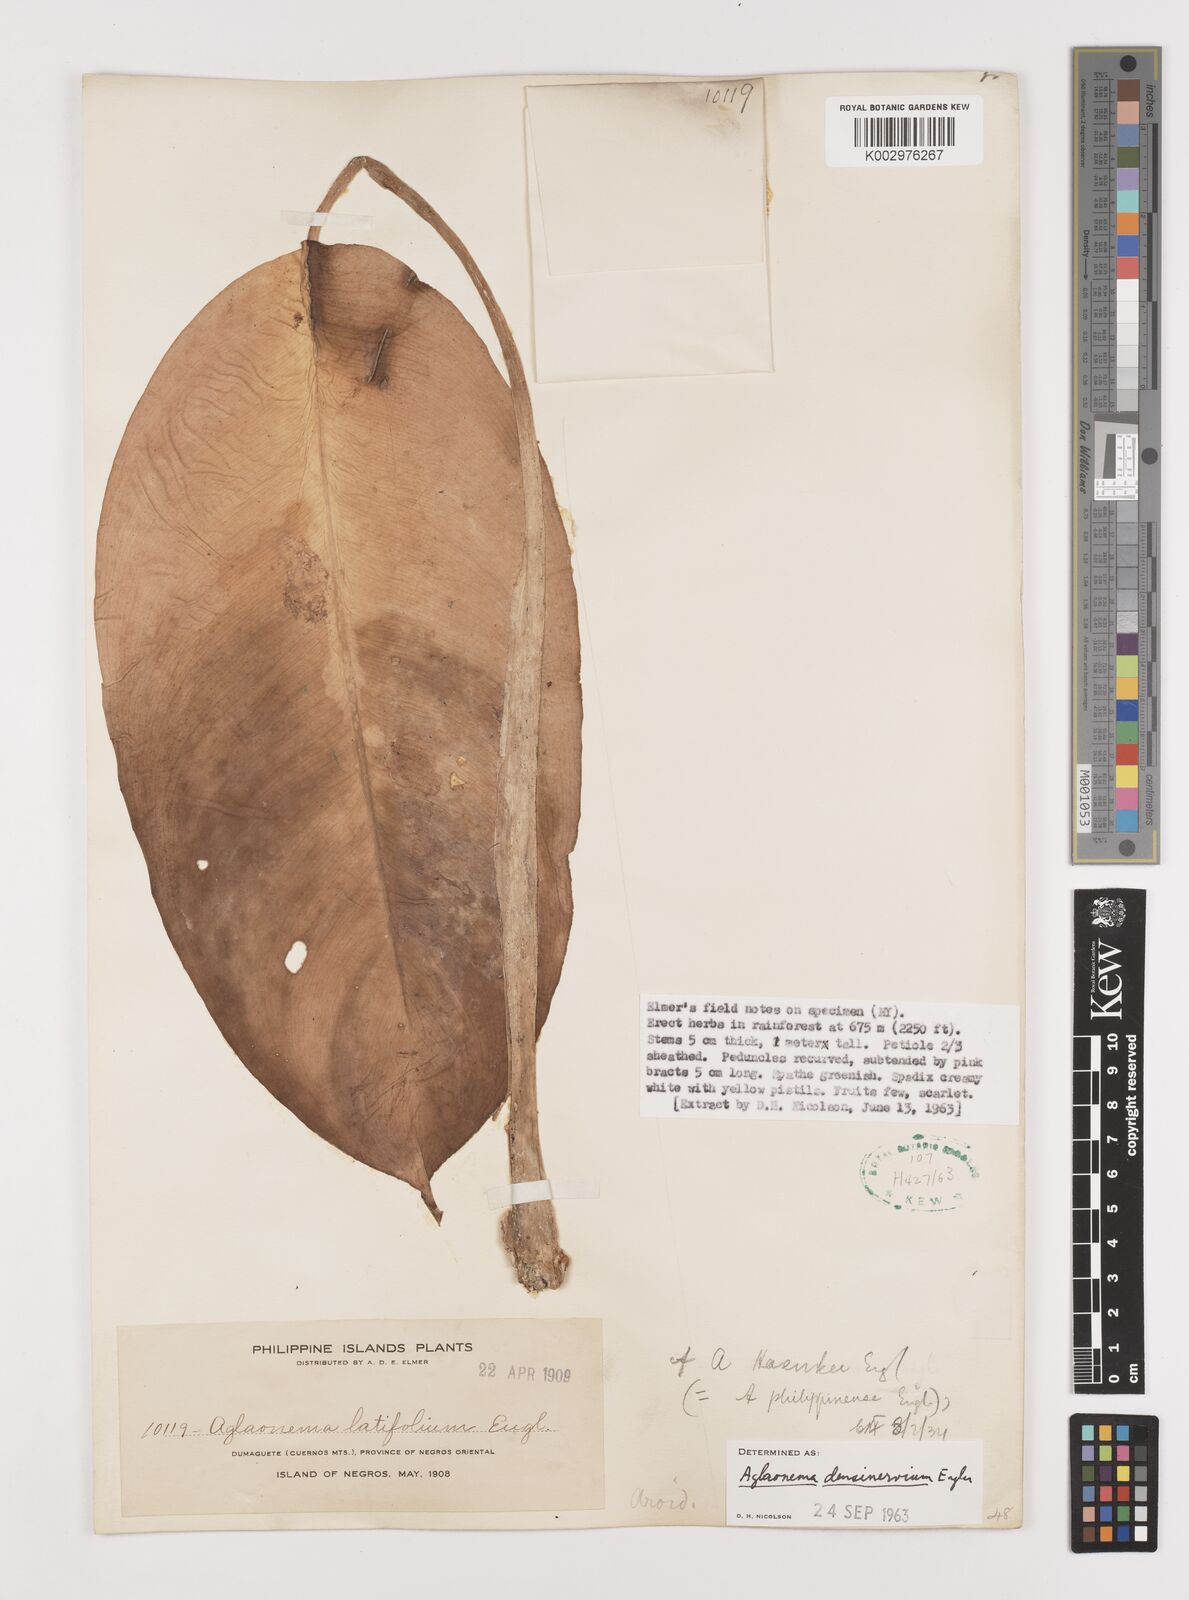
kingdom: Plantae
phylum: Tracheophyta
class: Liliopsida
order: Alismatales
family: Araceae
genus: Aglaonema
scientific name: Aglaonema densinervium
